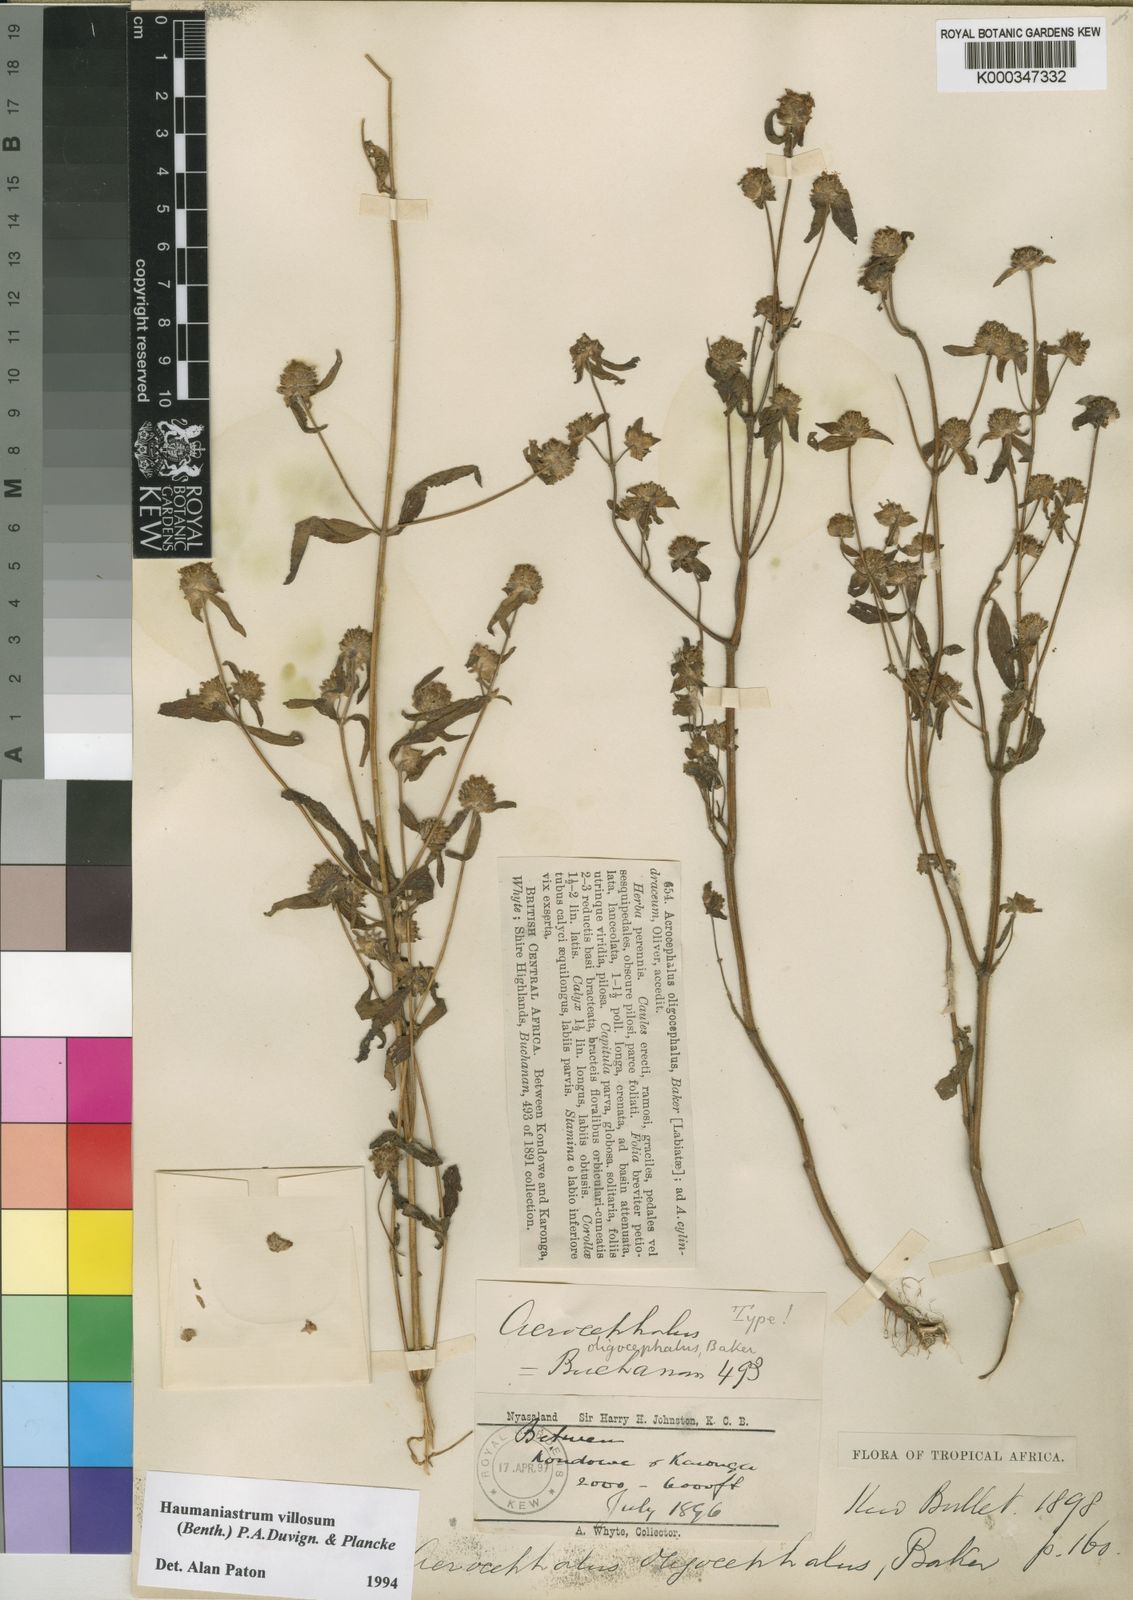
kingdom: Plantae
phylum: Tracheophyta
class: Magnoliopsida
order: Lamiales
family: Lamiaceae
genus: Haumaniastrum
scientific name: Haumaniastrum villosum
